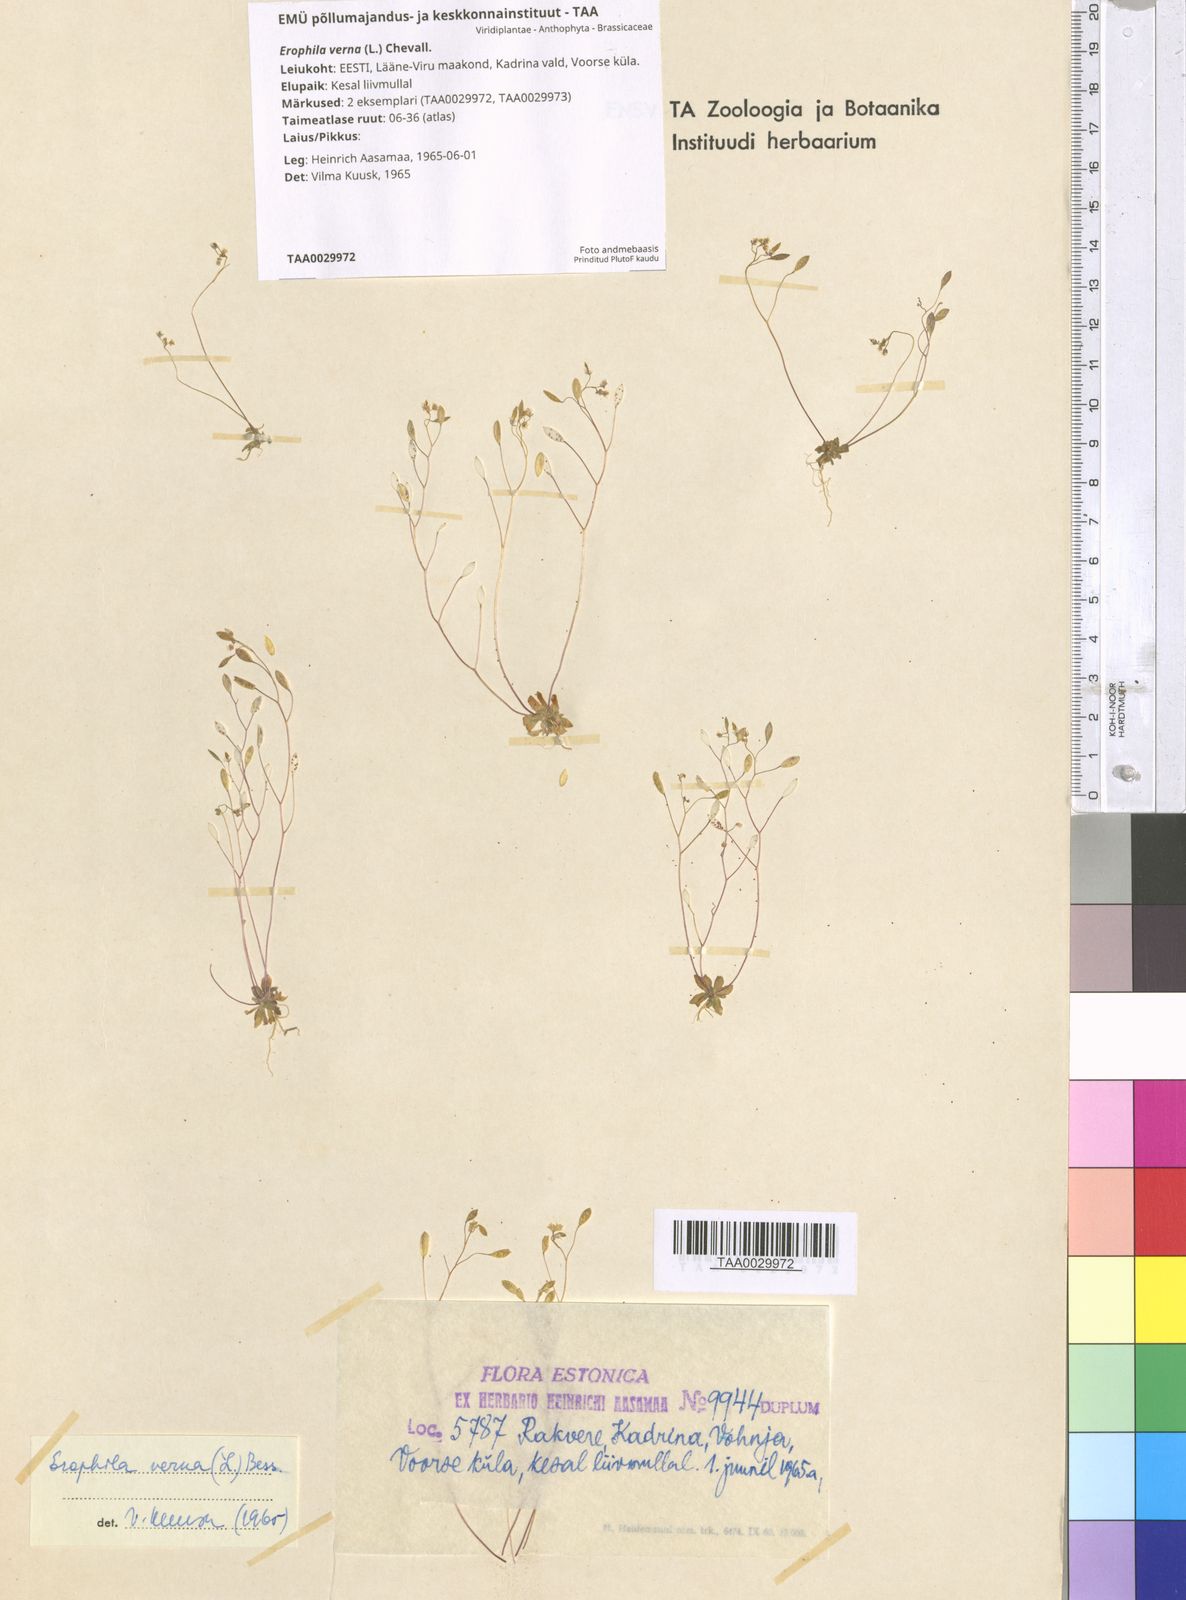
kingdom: Plantae
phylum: Tracheophyta
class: Magnoliopsida
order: Brassicales
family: Brassicaceae
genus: Draba
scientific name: Draba verna
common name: Spring draba
